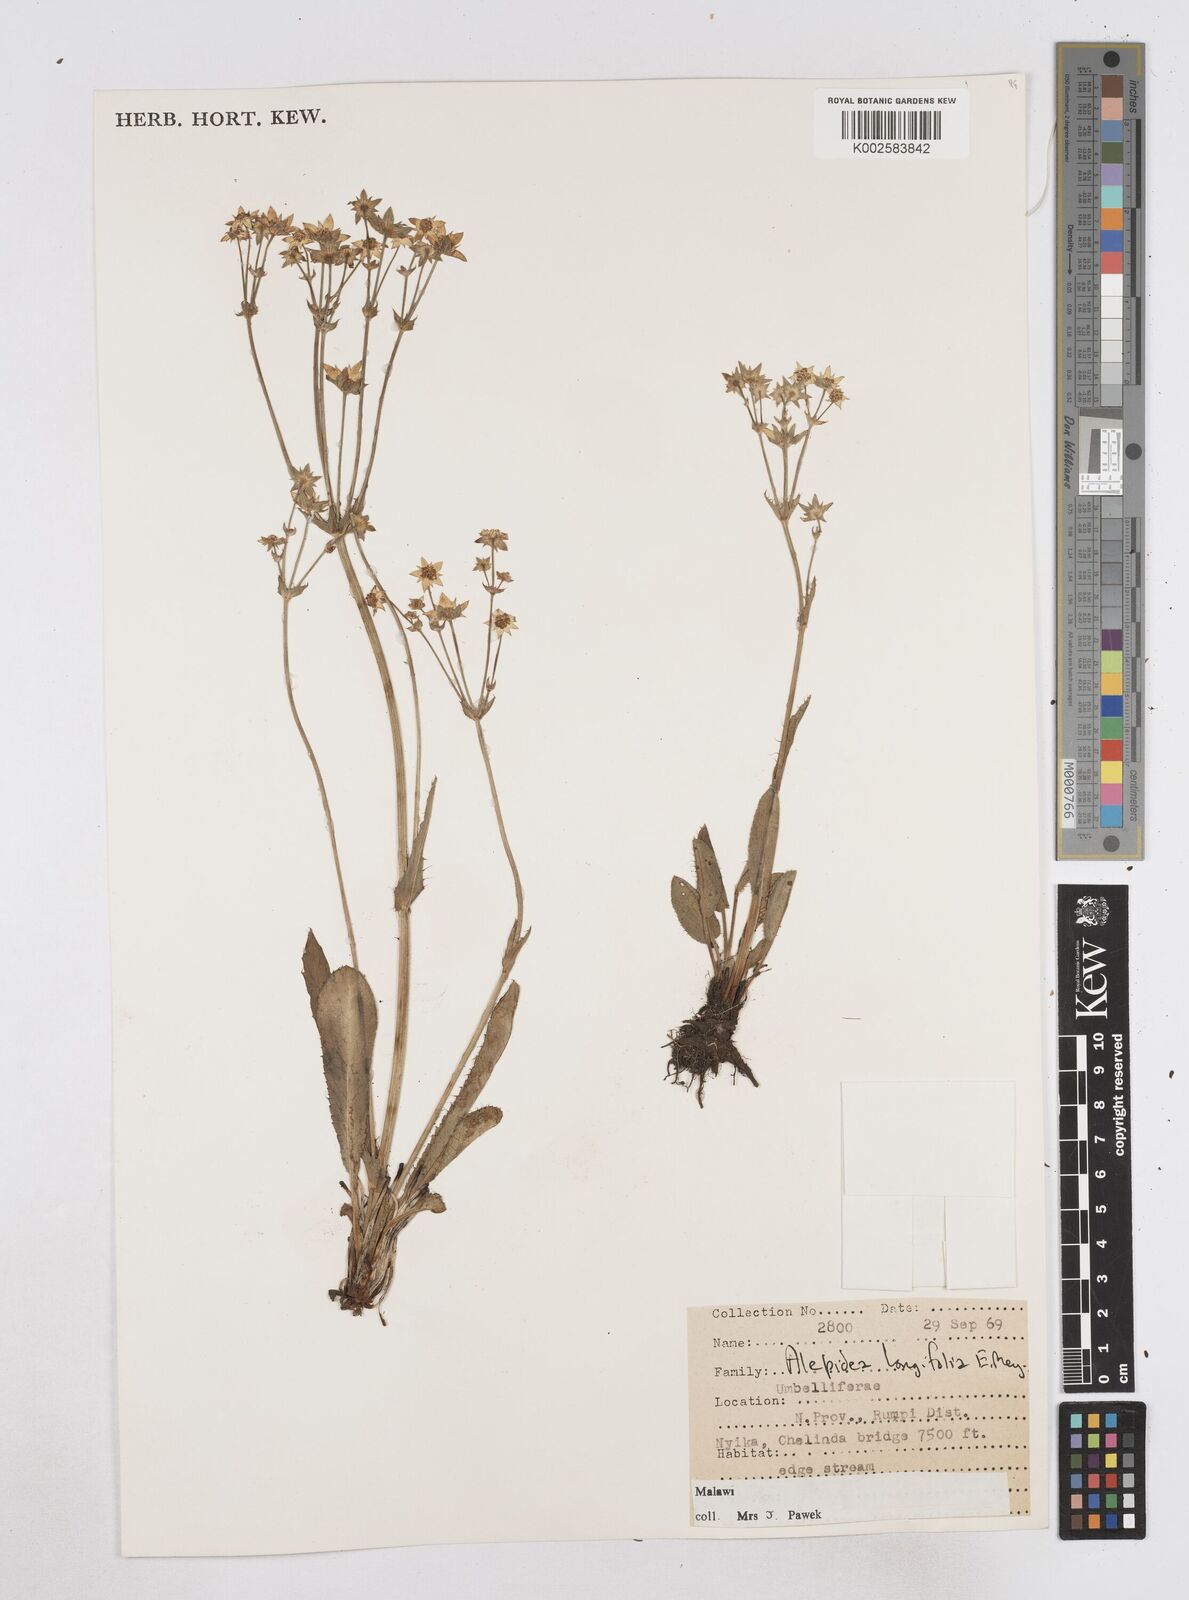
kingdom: Plantae
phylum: Tracheophyta
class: Magnoliopsida
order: Apiales
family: Apiaceae
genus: Alepidea
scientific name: Alepidea peduncularis
